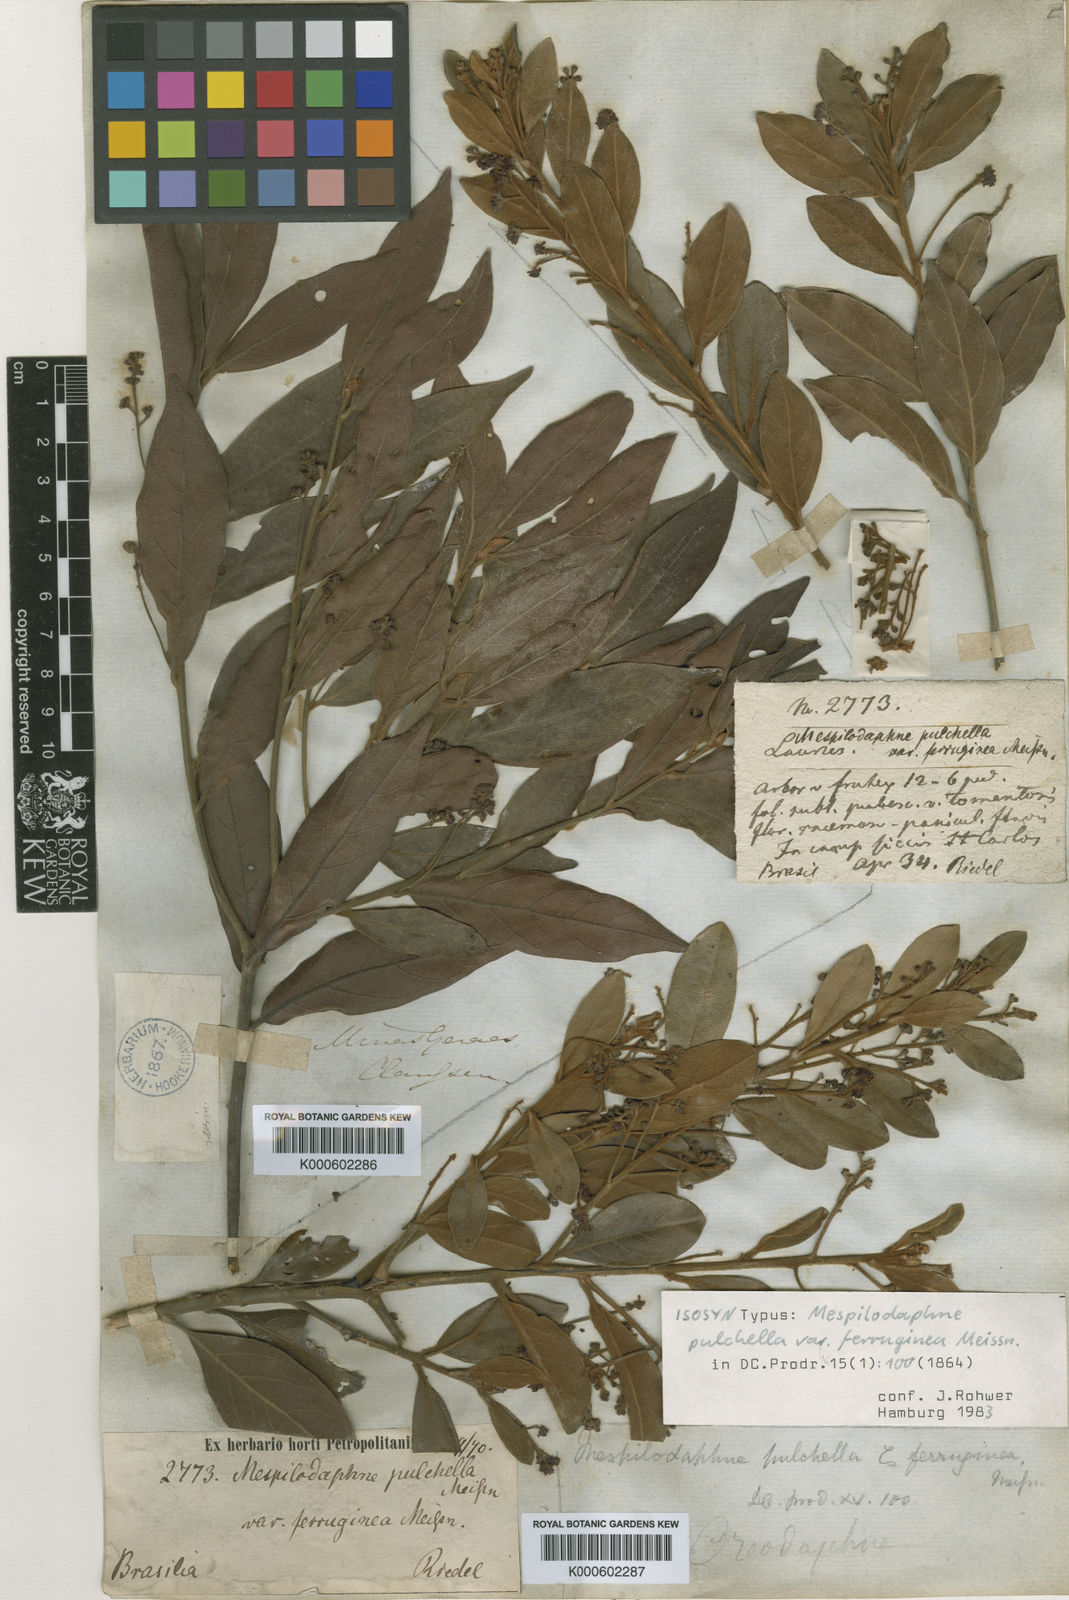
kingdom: Plantae
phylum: Tracheophyta
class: Magnoliopsida
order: Laurales
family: Lauraceae
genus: Mespilodaphne
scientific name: Mespilodaphne pulchella
